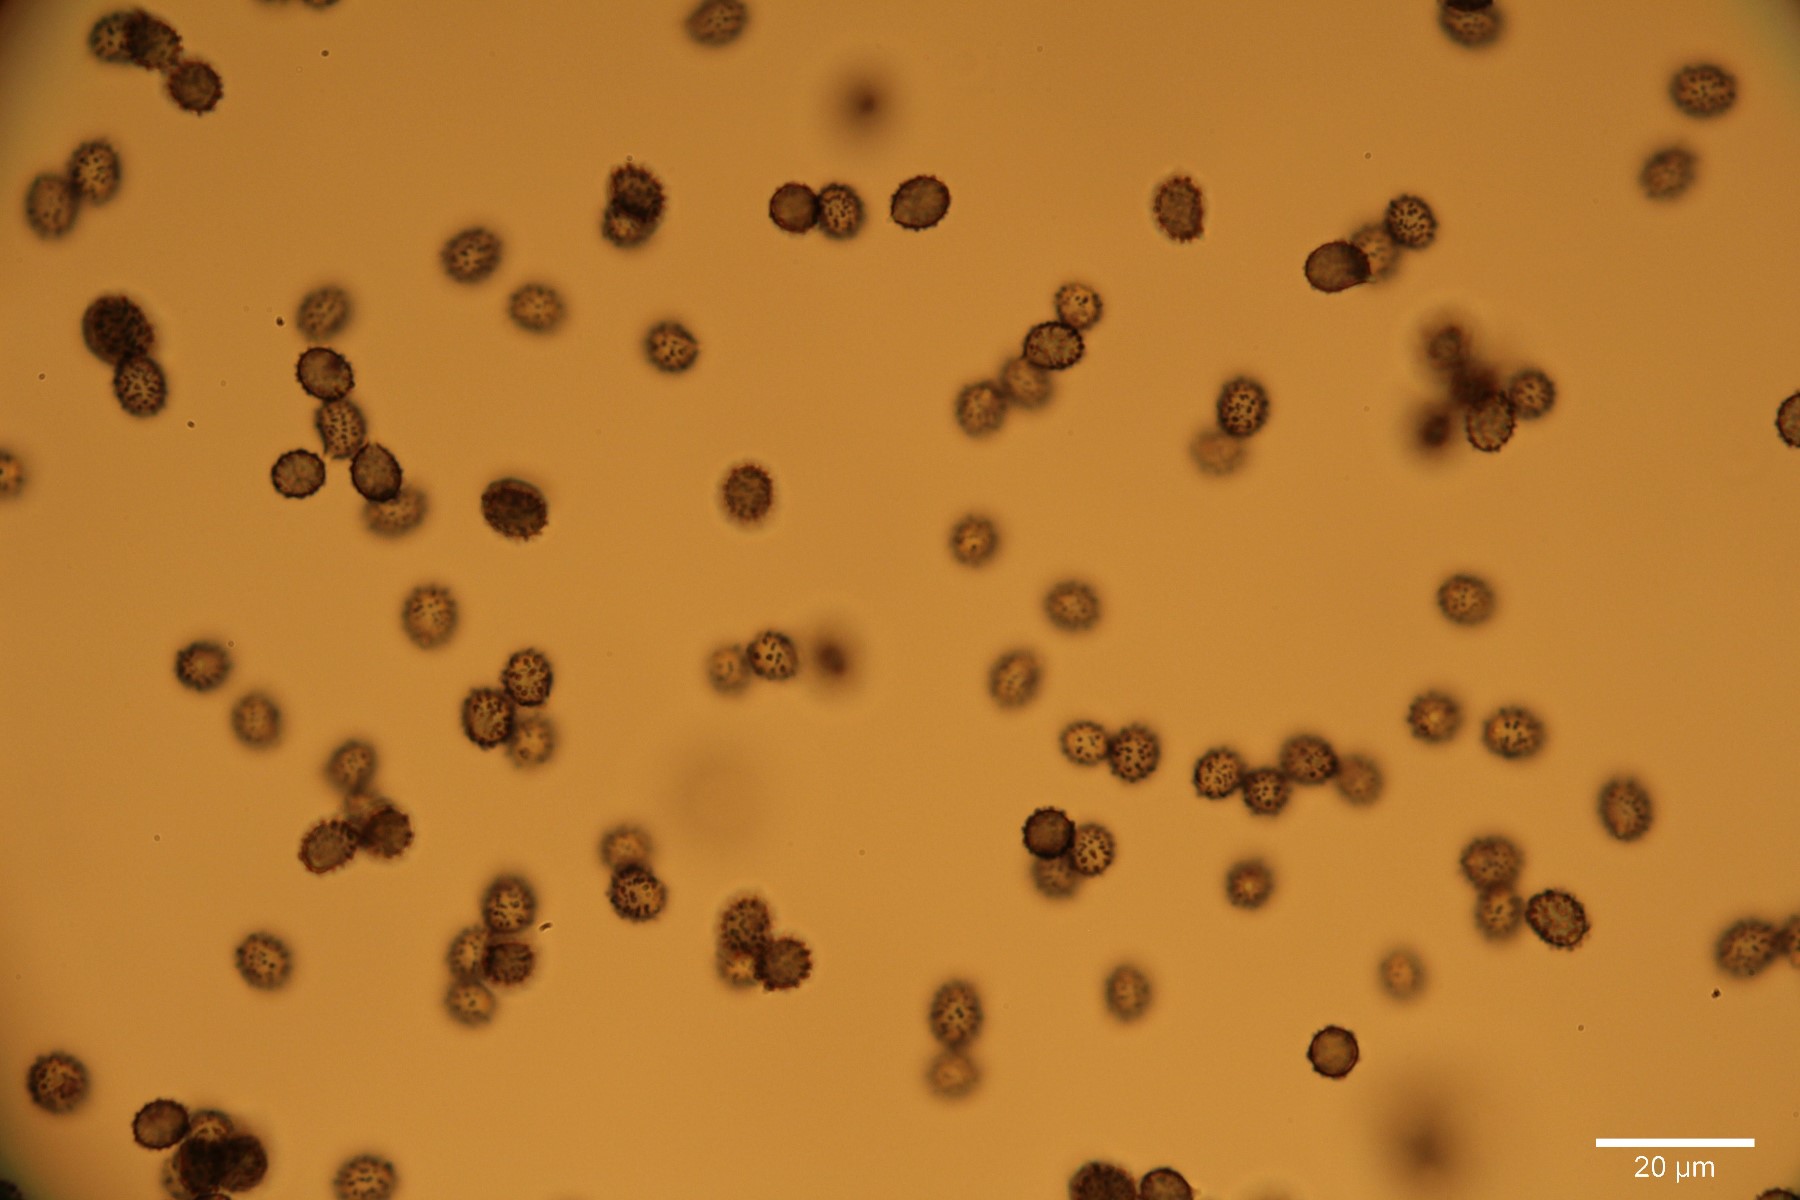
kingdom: Fungi
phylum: Basidiomycota
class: Agaricomycetes
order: Russulales
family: Russulaceae
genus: Russula
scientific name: Russula recondita
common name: mild kam-skørhat
